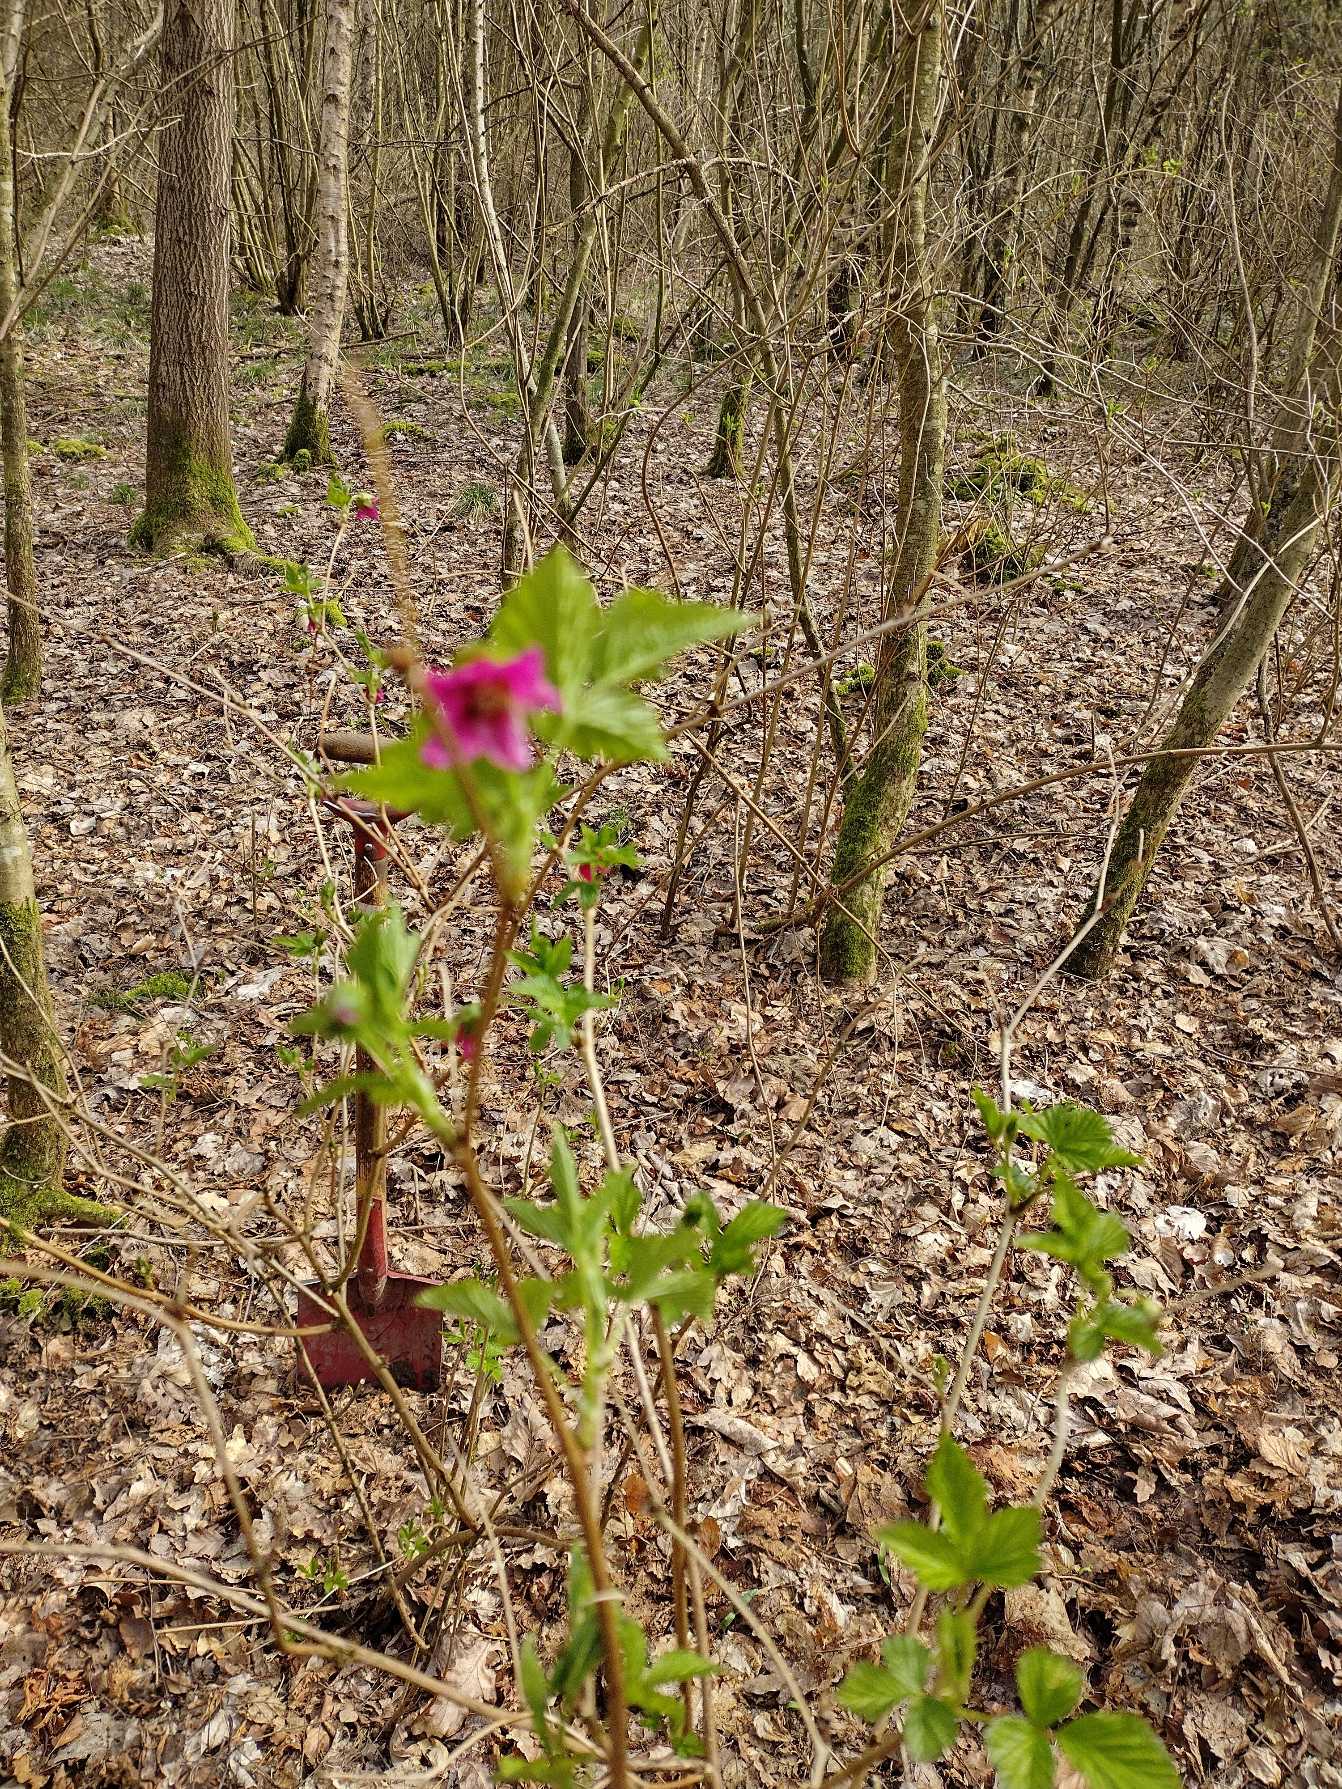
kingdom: Plantae
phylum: Tracheophyta
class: Magnoliopsida
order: Rosales
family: Rosaceae
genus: Rubus
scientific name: Rubus spectabilis
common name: Laksebær
